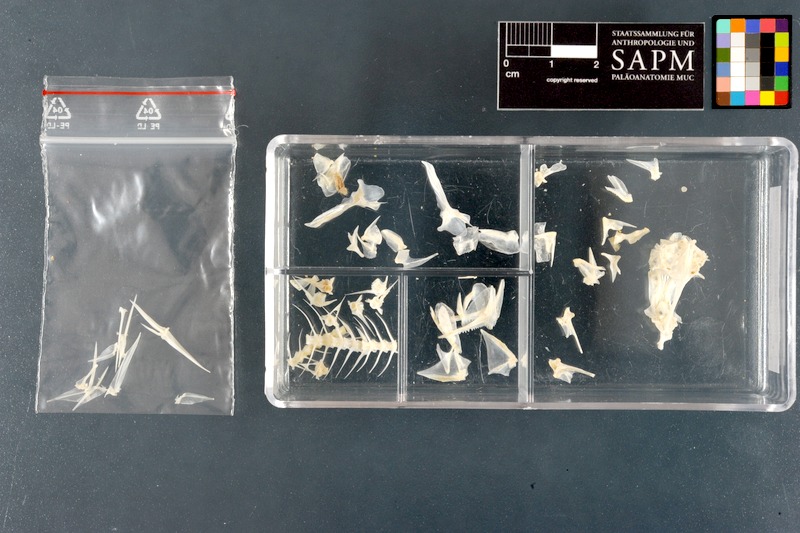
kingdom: Animalia
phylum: Chordata
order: Perciformes
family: Nemipteridae
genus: Scolopsis
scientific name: Scolopsis bimaculata
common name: Thumbprint monocle bream
